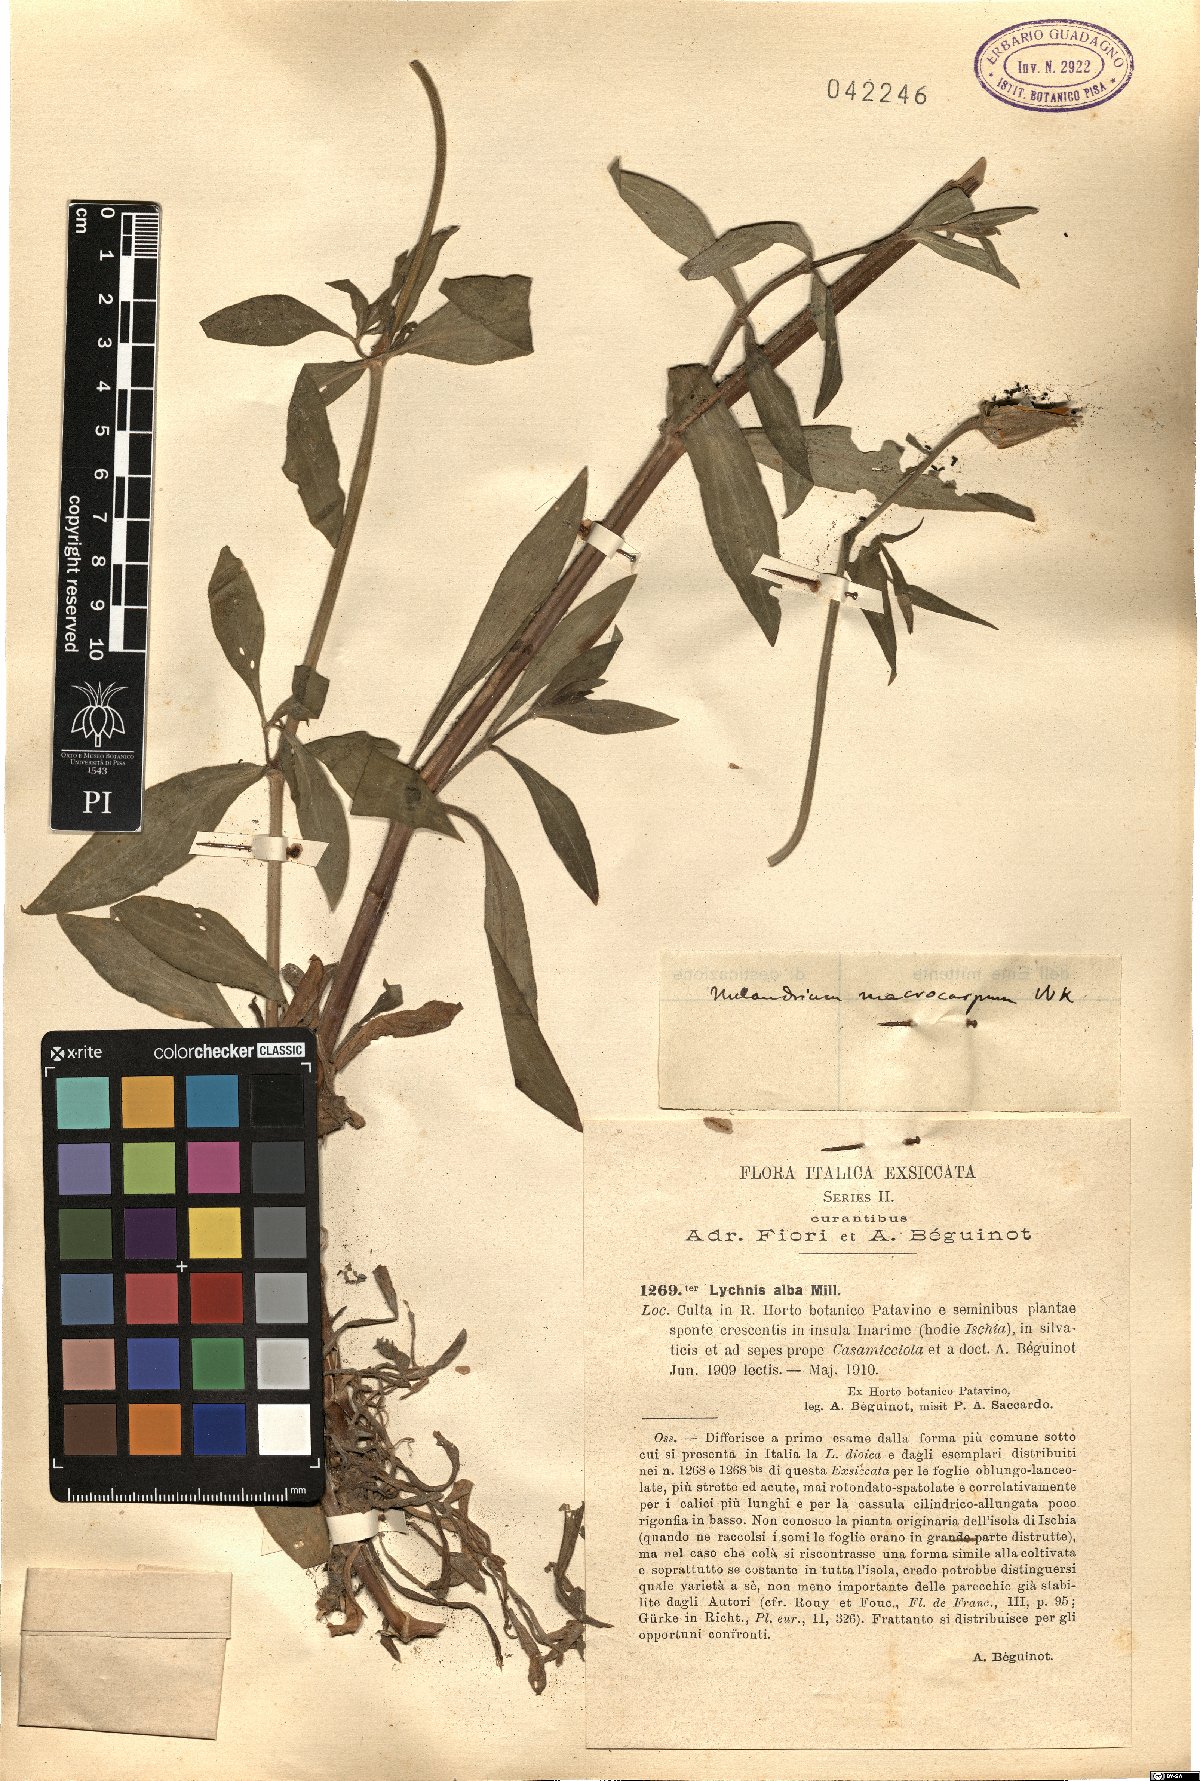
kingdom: Plantae
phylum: Tracheophyta
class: Magnoliopsida
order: Caryophyllales
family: Caryophyllaceae
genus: Silene
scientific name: Silene latifolia
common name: White campion
